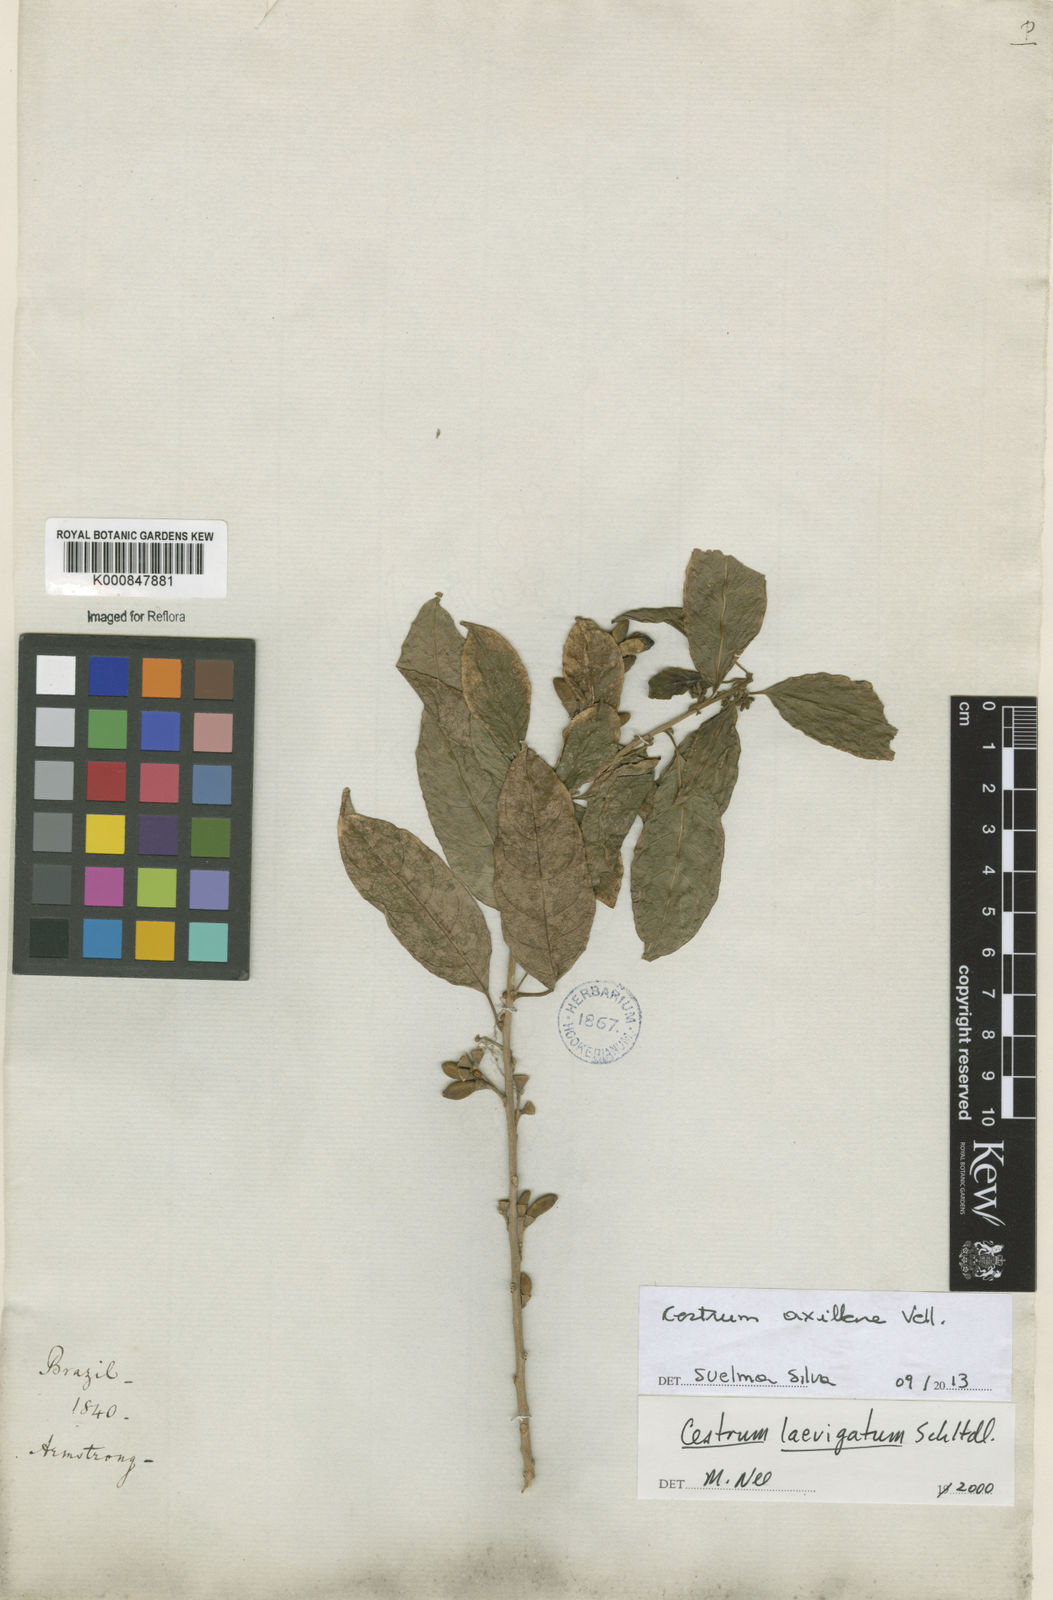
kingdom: Plantae
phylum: Tracheophyta
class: Magnoliopsida
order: Solanales
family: Solanaceae
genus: Cestrum
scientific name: Cestrum laevigatum
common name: Inkberry
